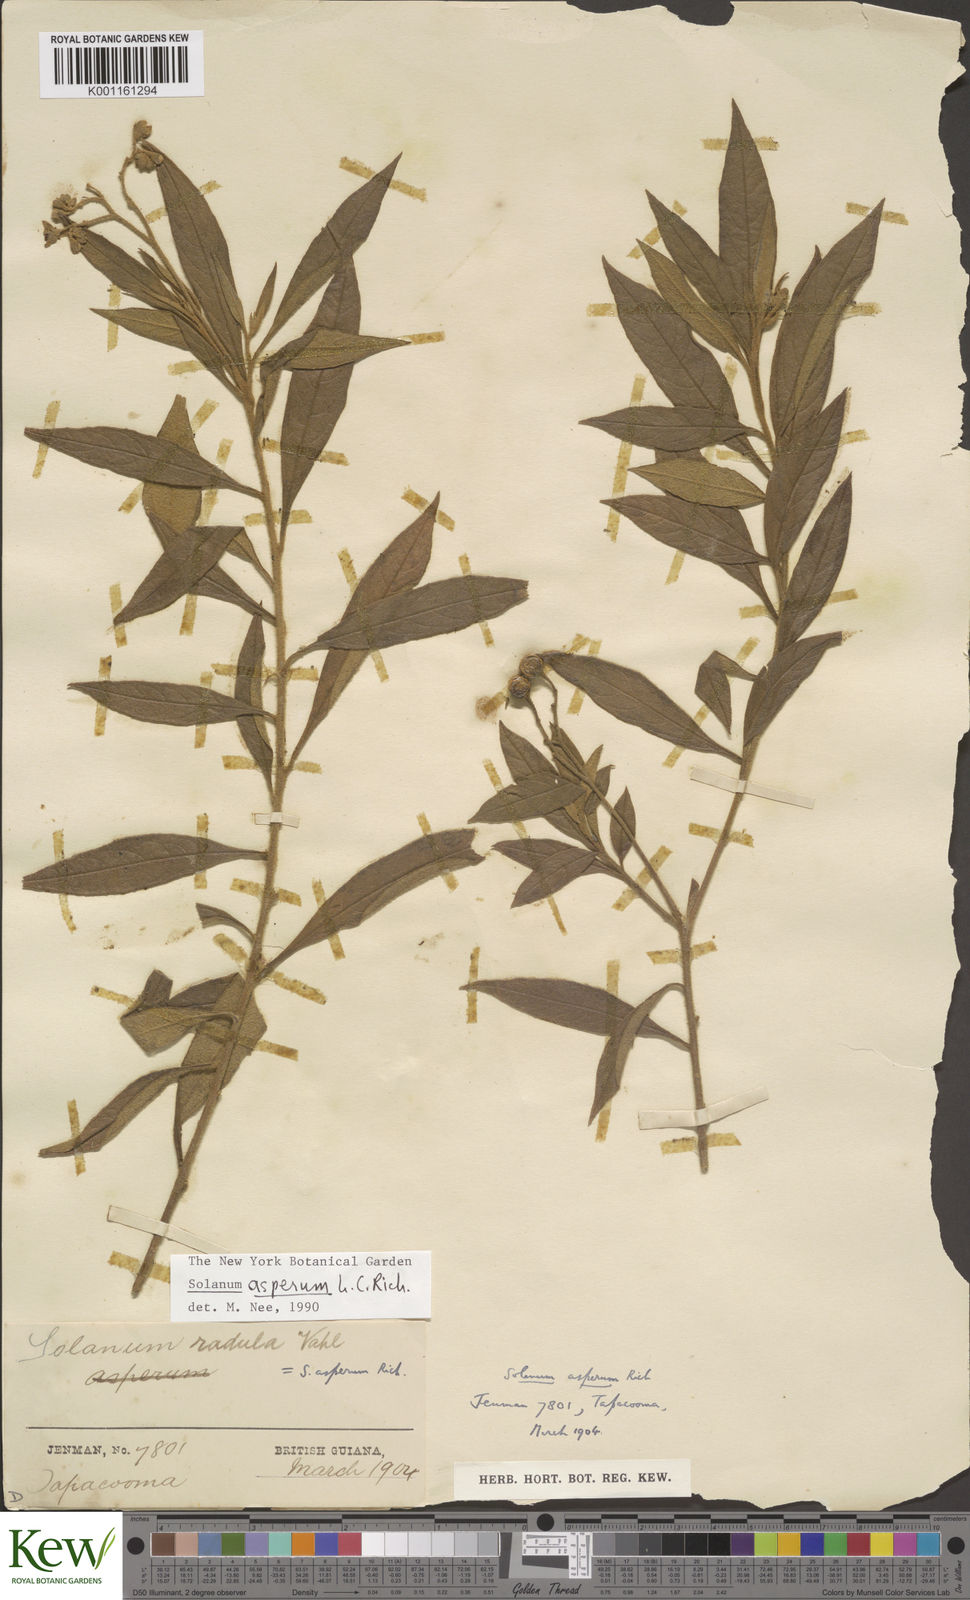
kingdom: Plantae
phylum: Tracheophyta
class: Magnoliopsida
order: Solanales
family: Solanaceae
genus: Solanum
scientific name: Solanum asperum
